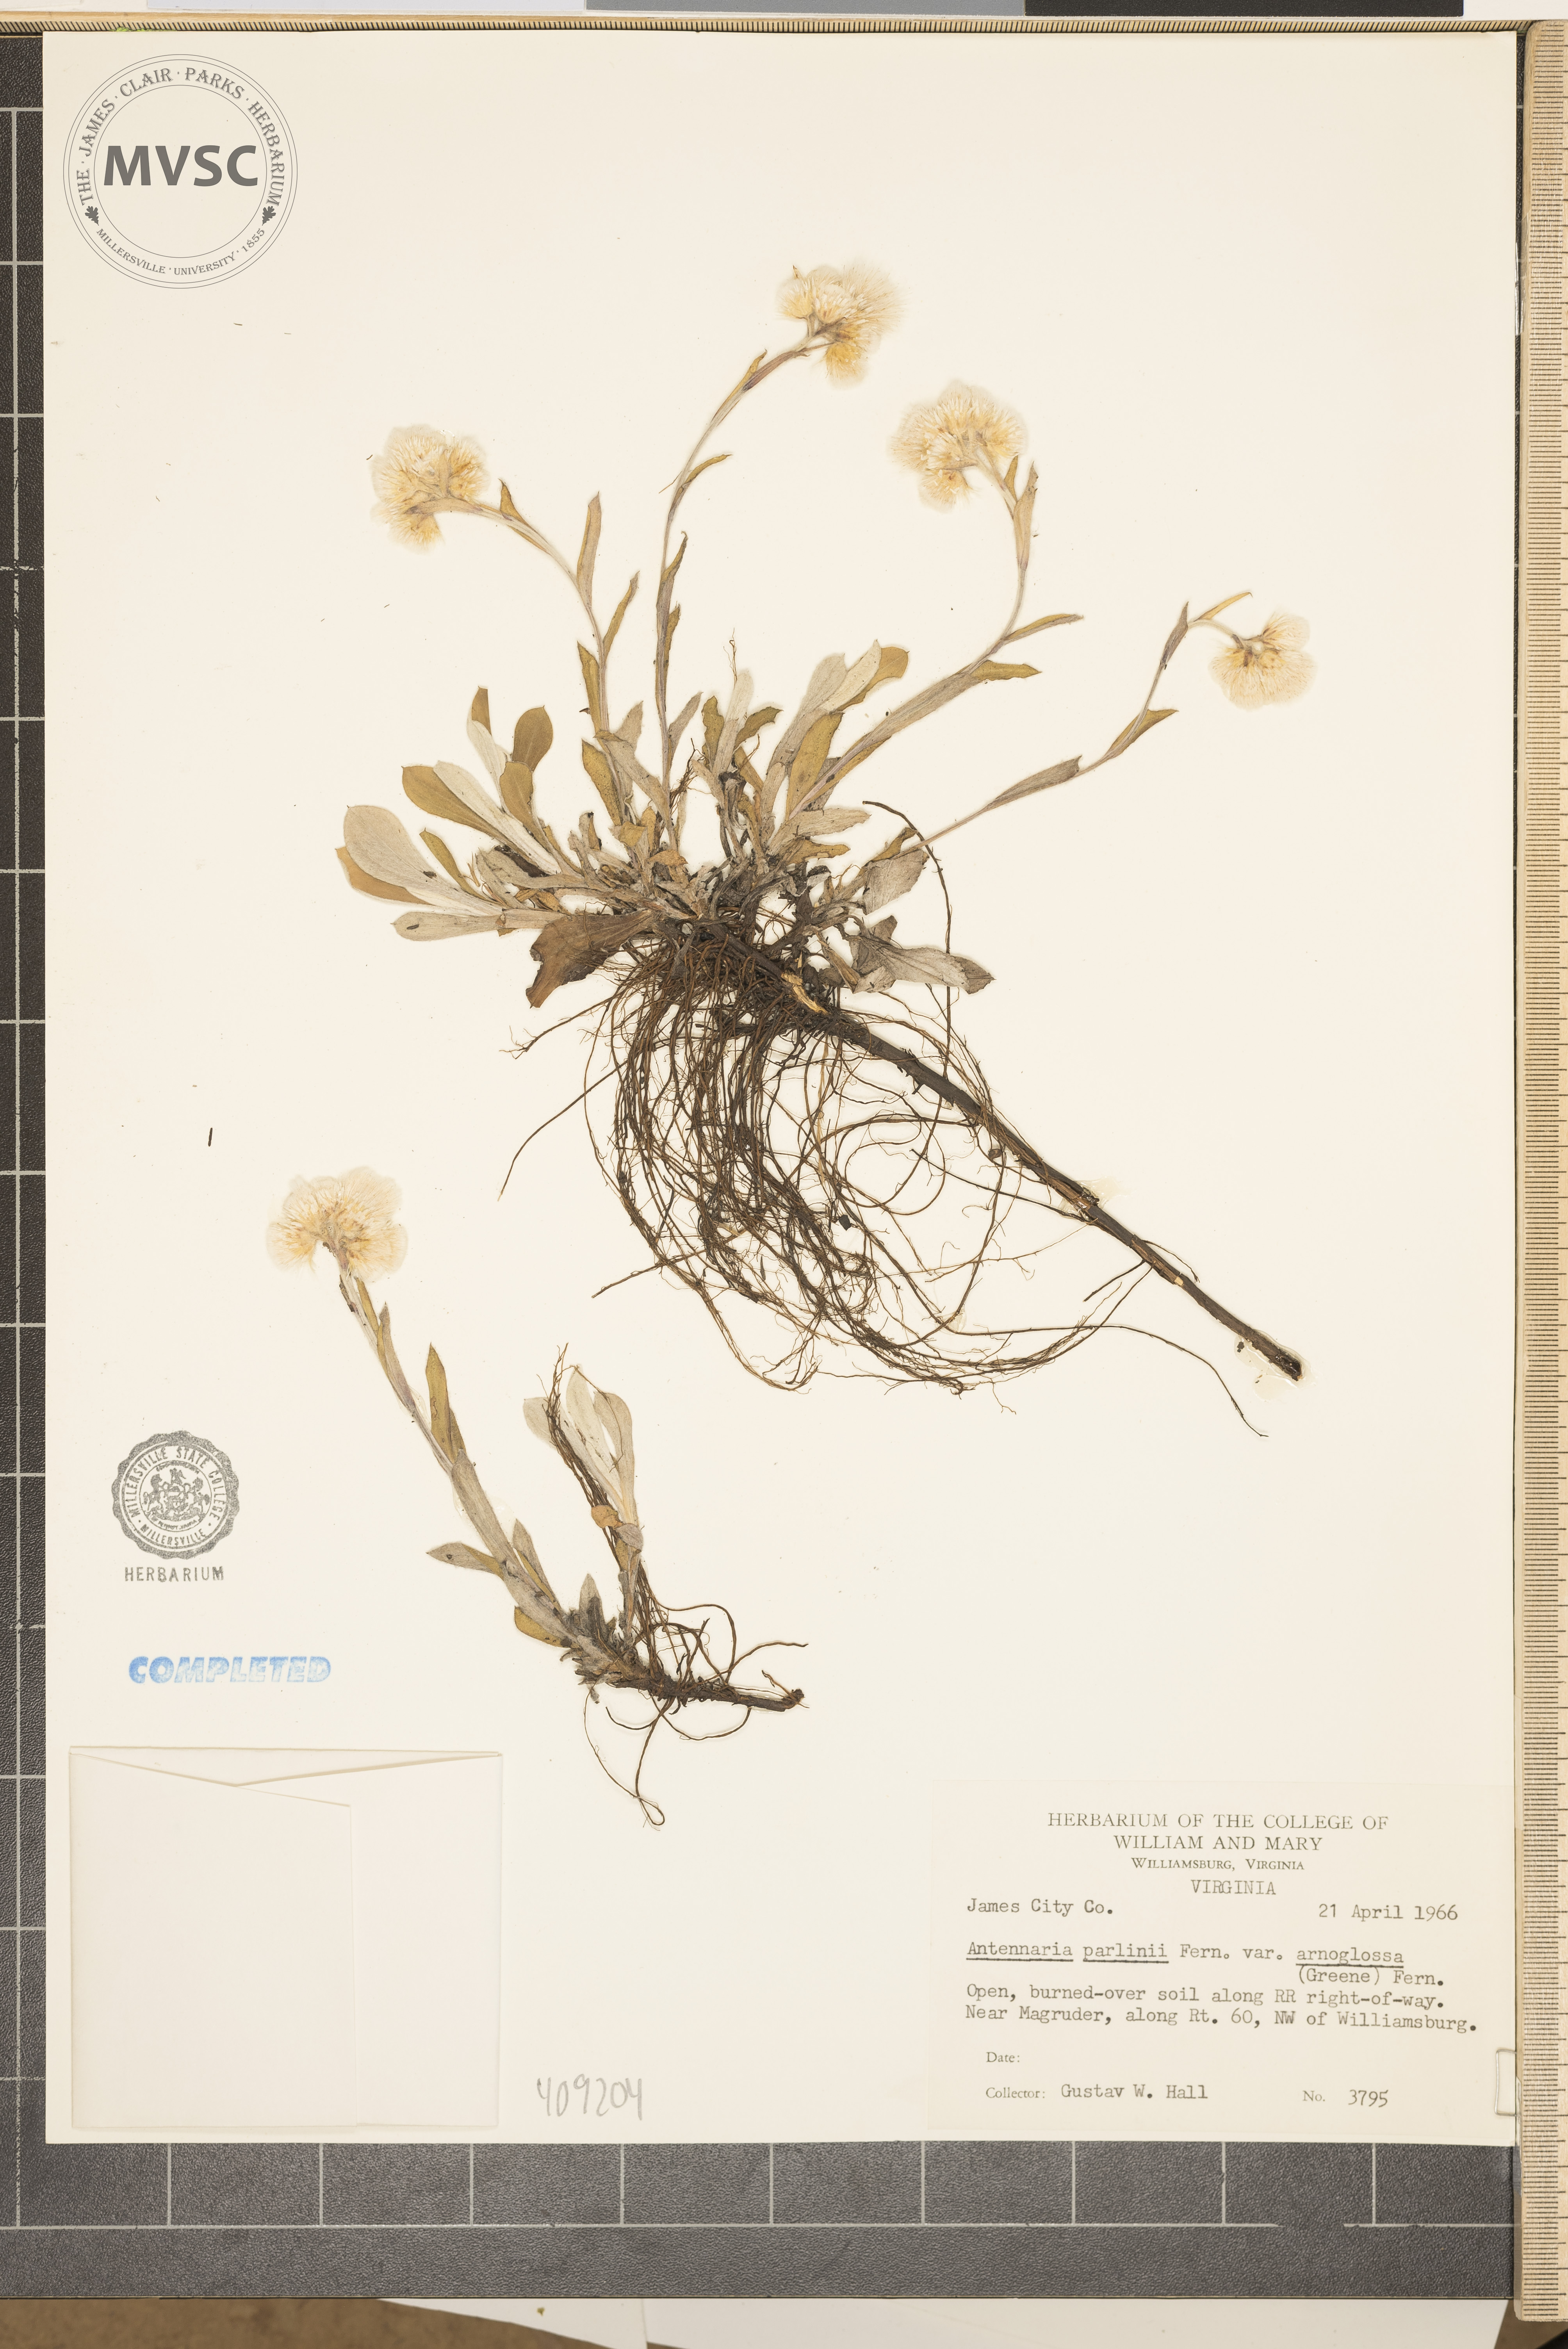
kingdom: Plantae
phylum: Tracheophyta
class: Magnoliopsida
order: Asterales
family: Asteraceae
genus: Antennaria
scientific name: Antennaria parlinii
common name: Parlin's pussytoes
